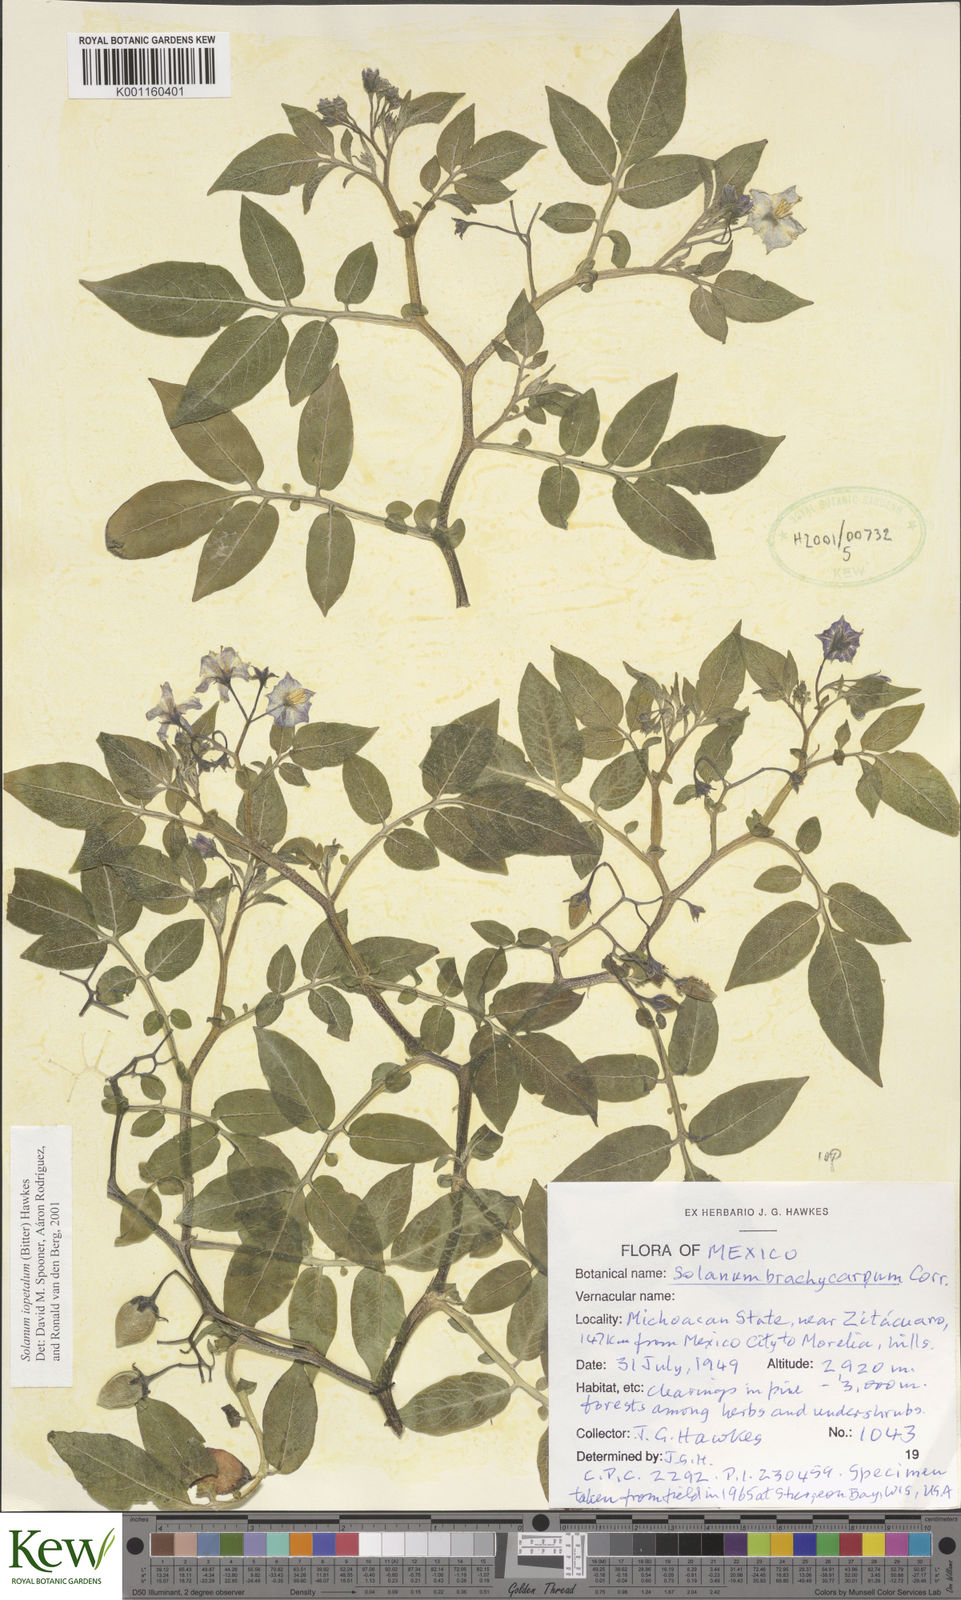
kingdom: Plantae
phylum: Tracheophyta
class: Magnoliopsida
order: Solanales
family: Solanaceae
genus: Solanum
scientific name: Solanum iopetalum
